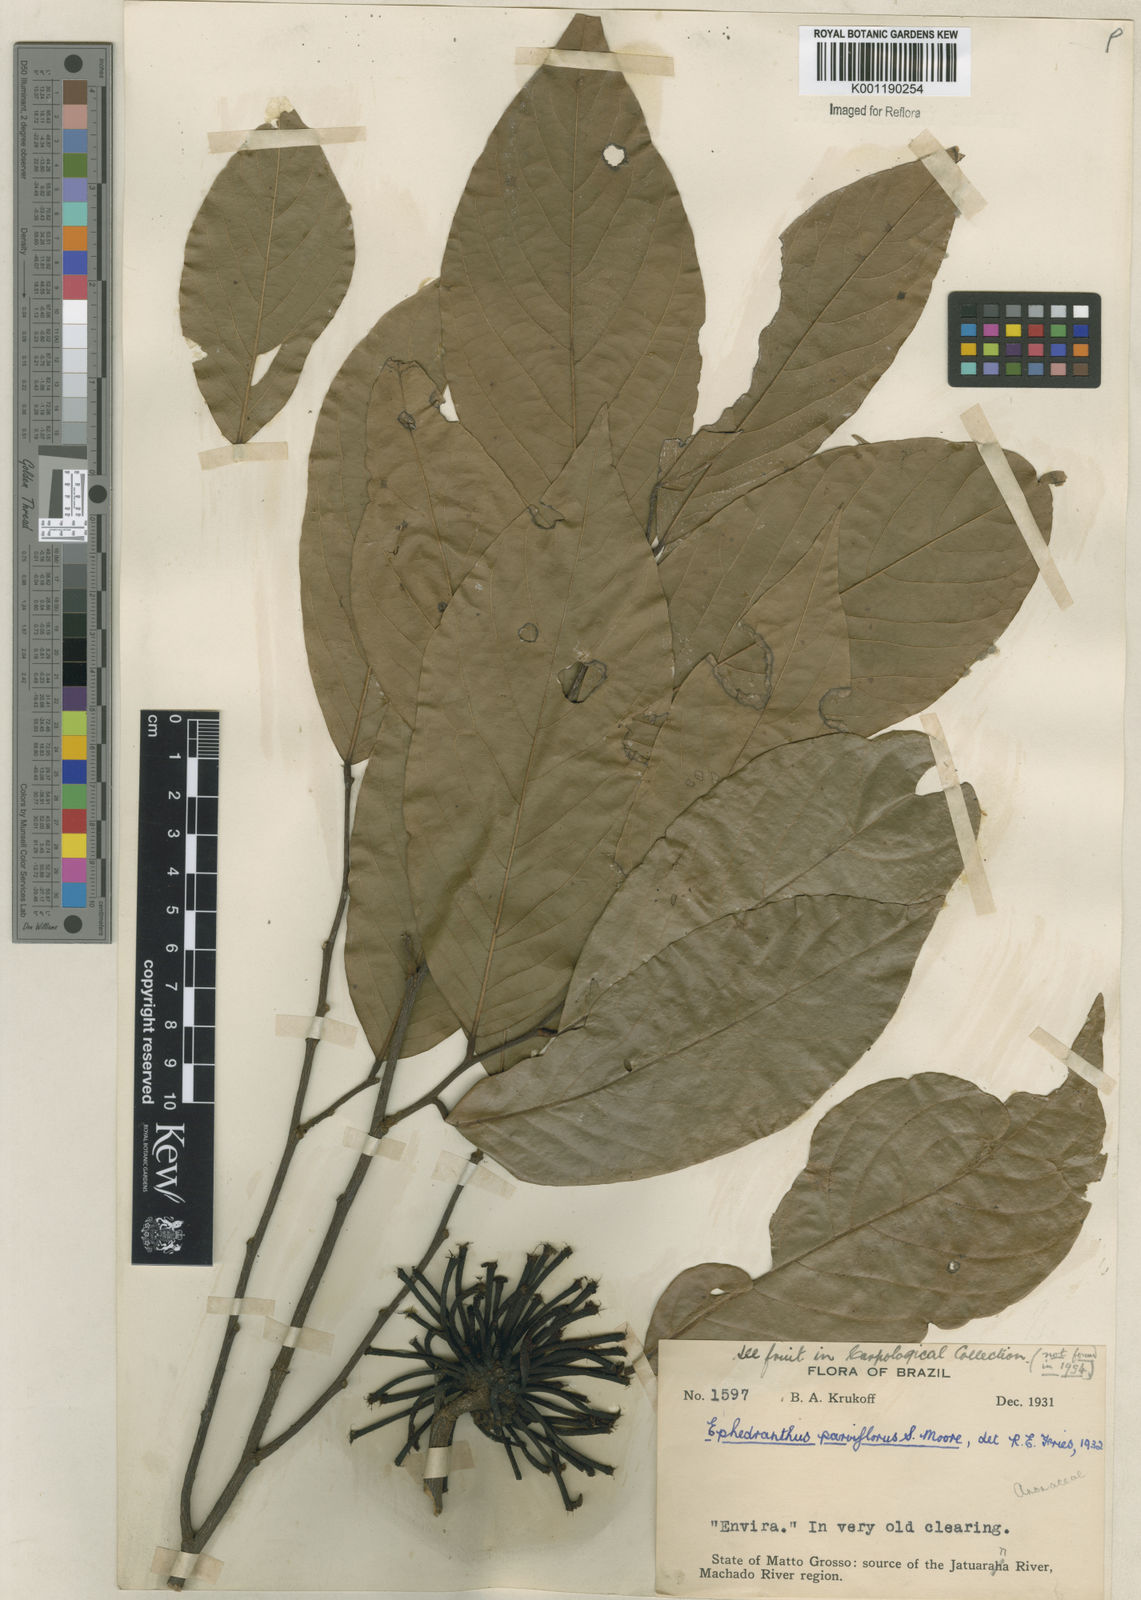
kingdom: Plantae
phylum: Tracheophyta
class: Magnoliopsida
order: Magnoliales
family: Annonaceae
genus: Ephedranthus
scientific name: Ephedranthus parviflorus
